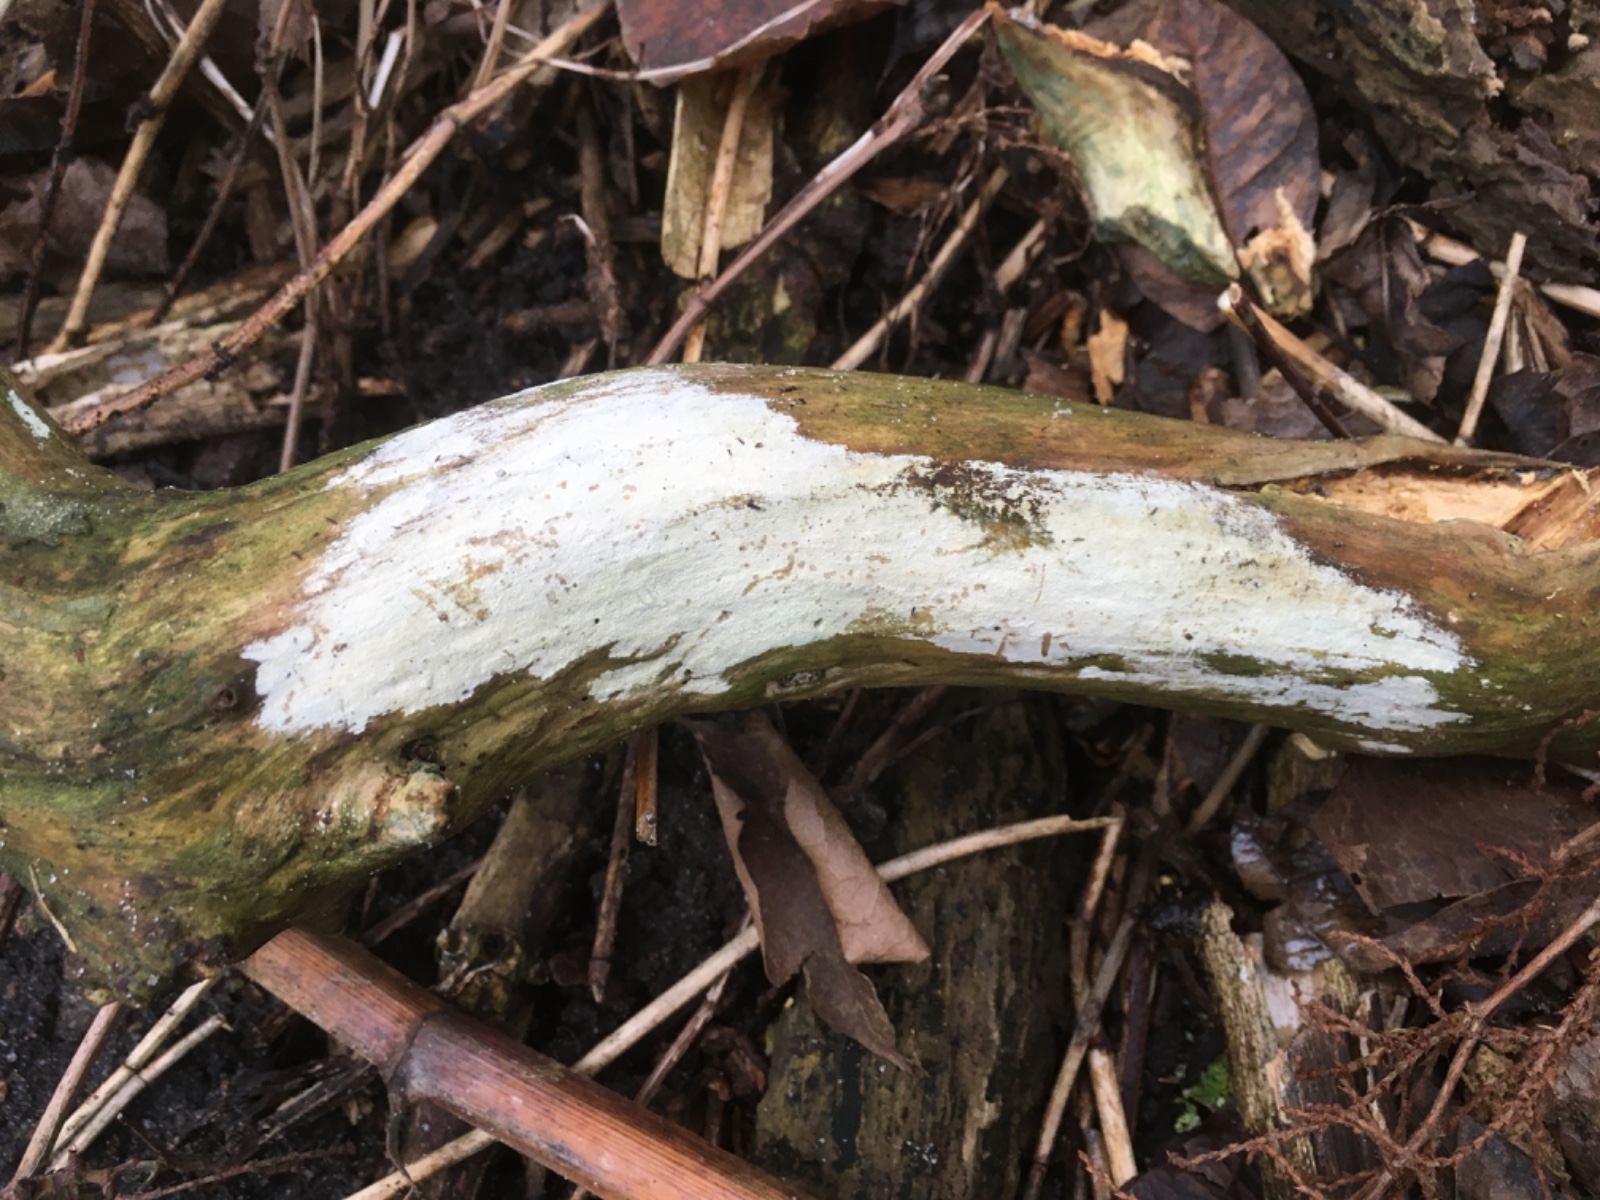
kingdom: Fungi
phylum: Basidiomycota
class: Agaricomycetes
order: Corticiales
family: Corticiaceae
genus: Lyomyces
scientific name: Lyomyces sambuci
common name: almindelig hyldehinde
